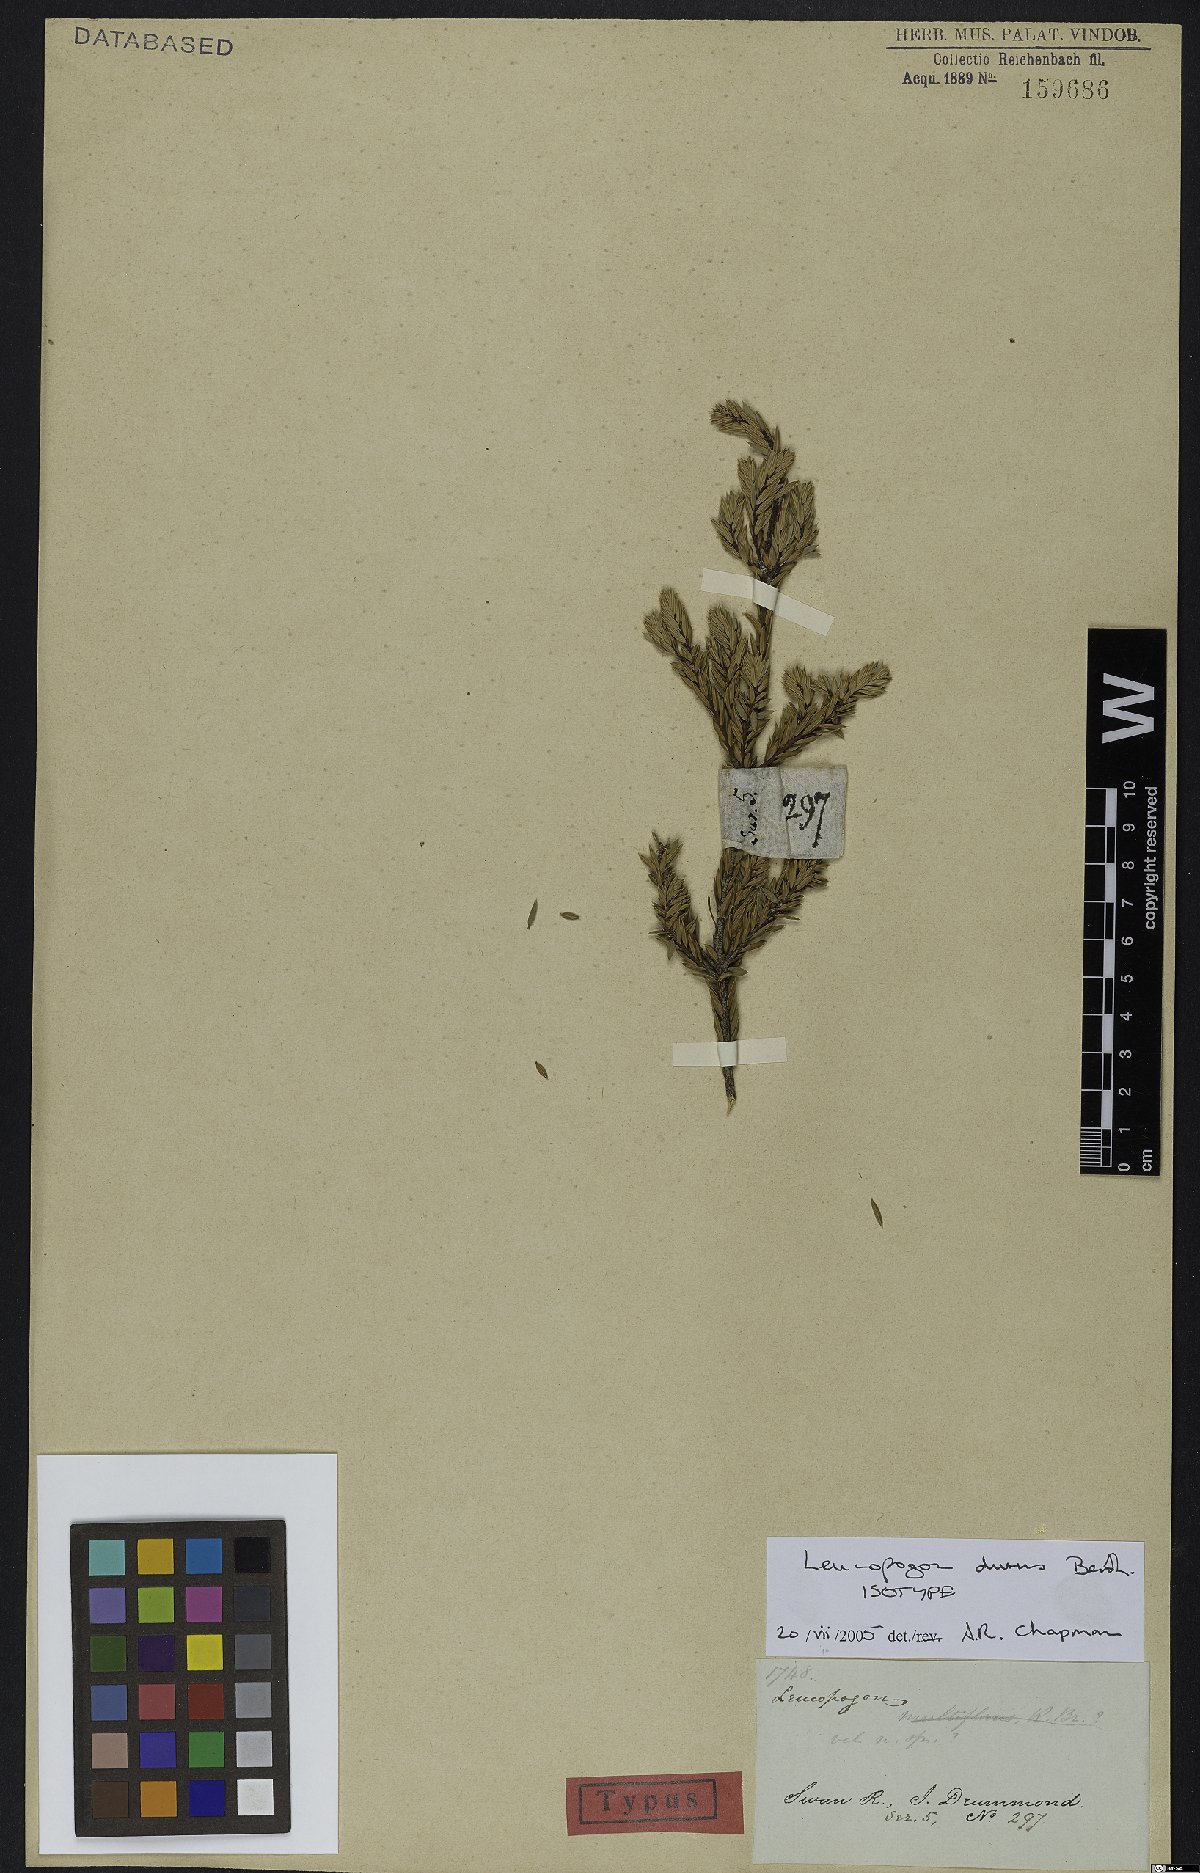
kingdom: Plantae
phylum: Tracheophyta
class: Magnoliopsida
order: Ericales
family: Ericaceae
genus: Acrotriche
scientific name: Acrotriche dura
